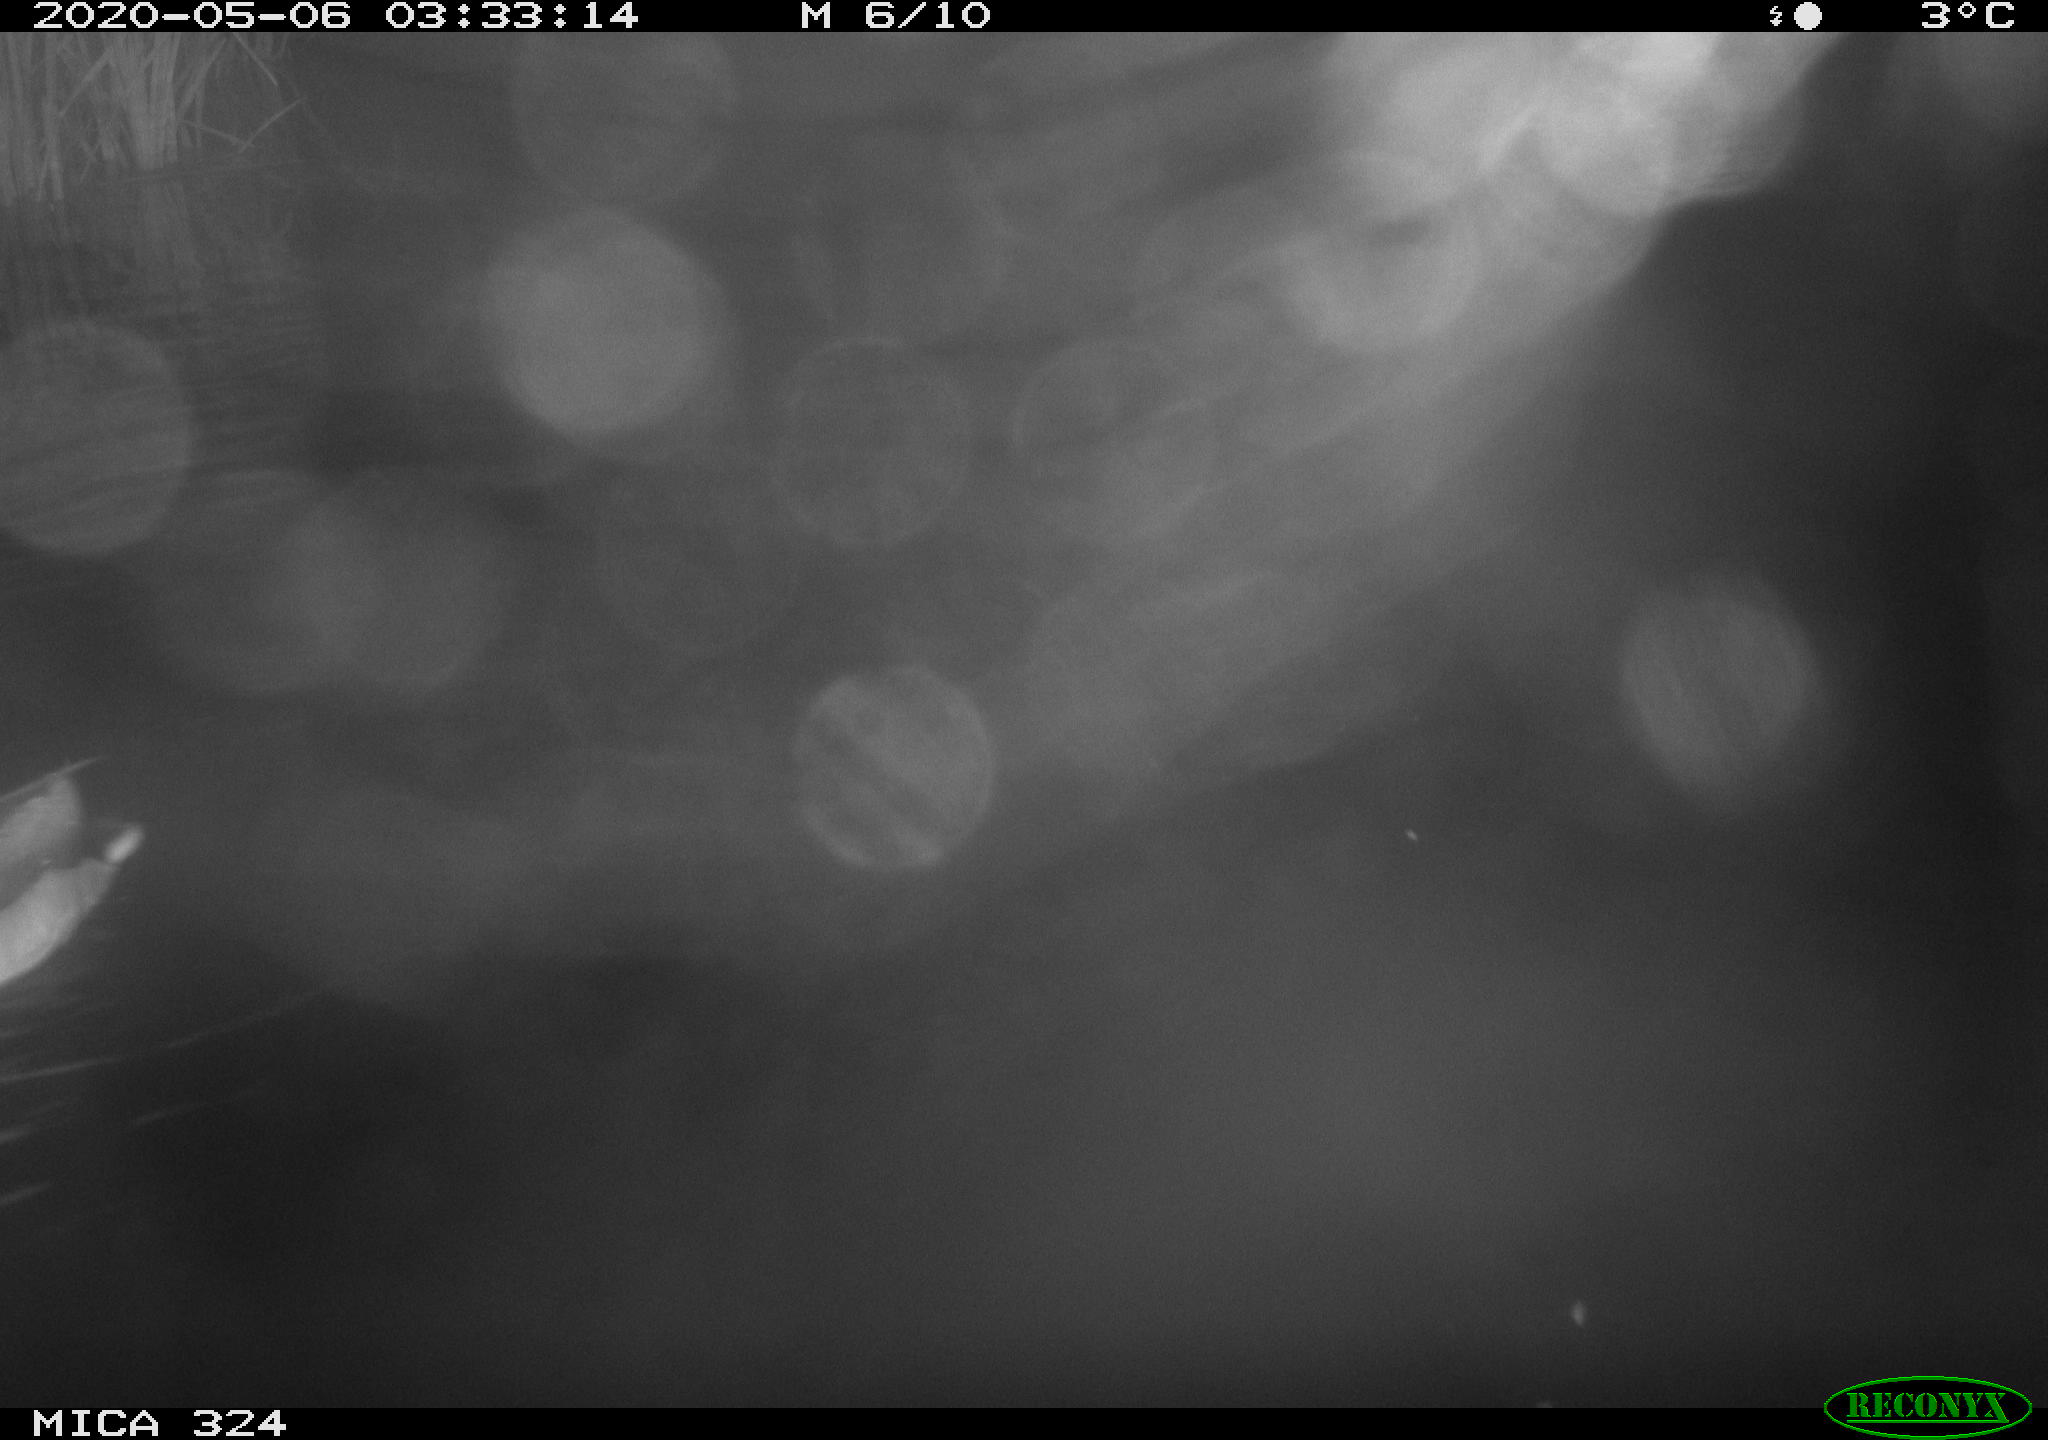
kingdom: Animalia
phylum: Chordata
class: Aves
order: Anseriformes
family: Anatidae
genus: Anas
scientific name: Anas platyrhynchos
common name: Mallard
